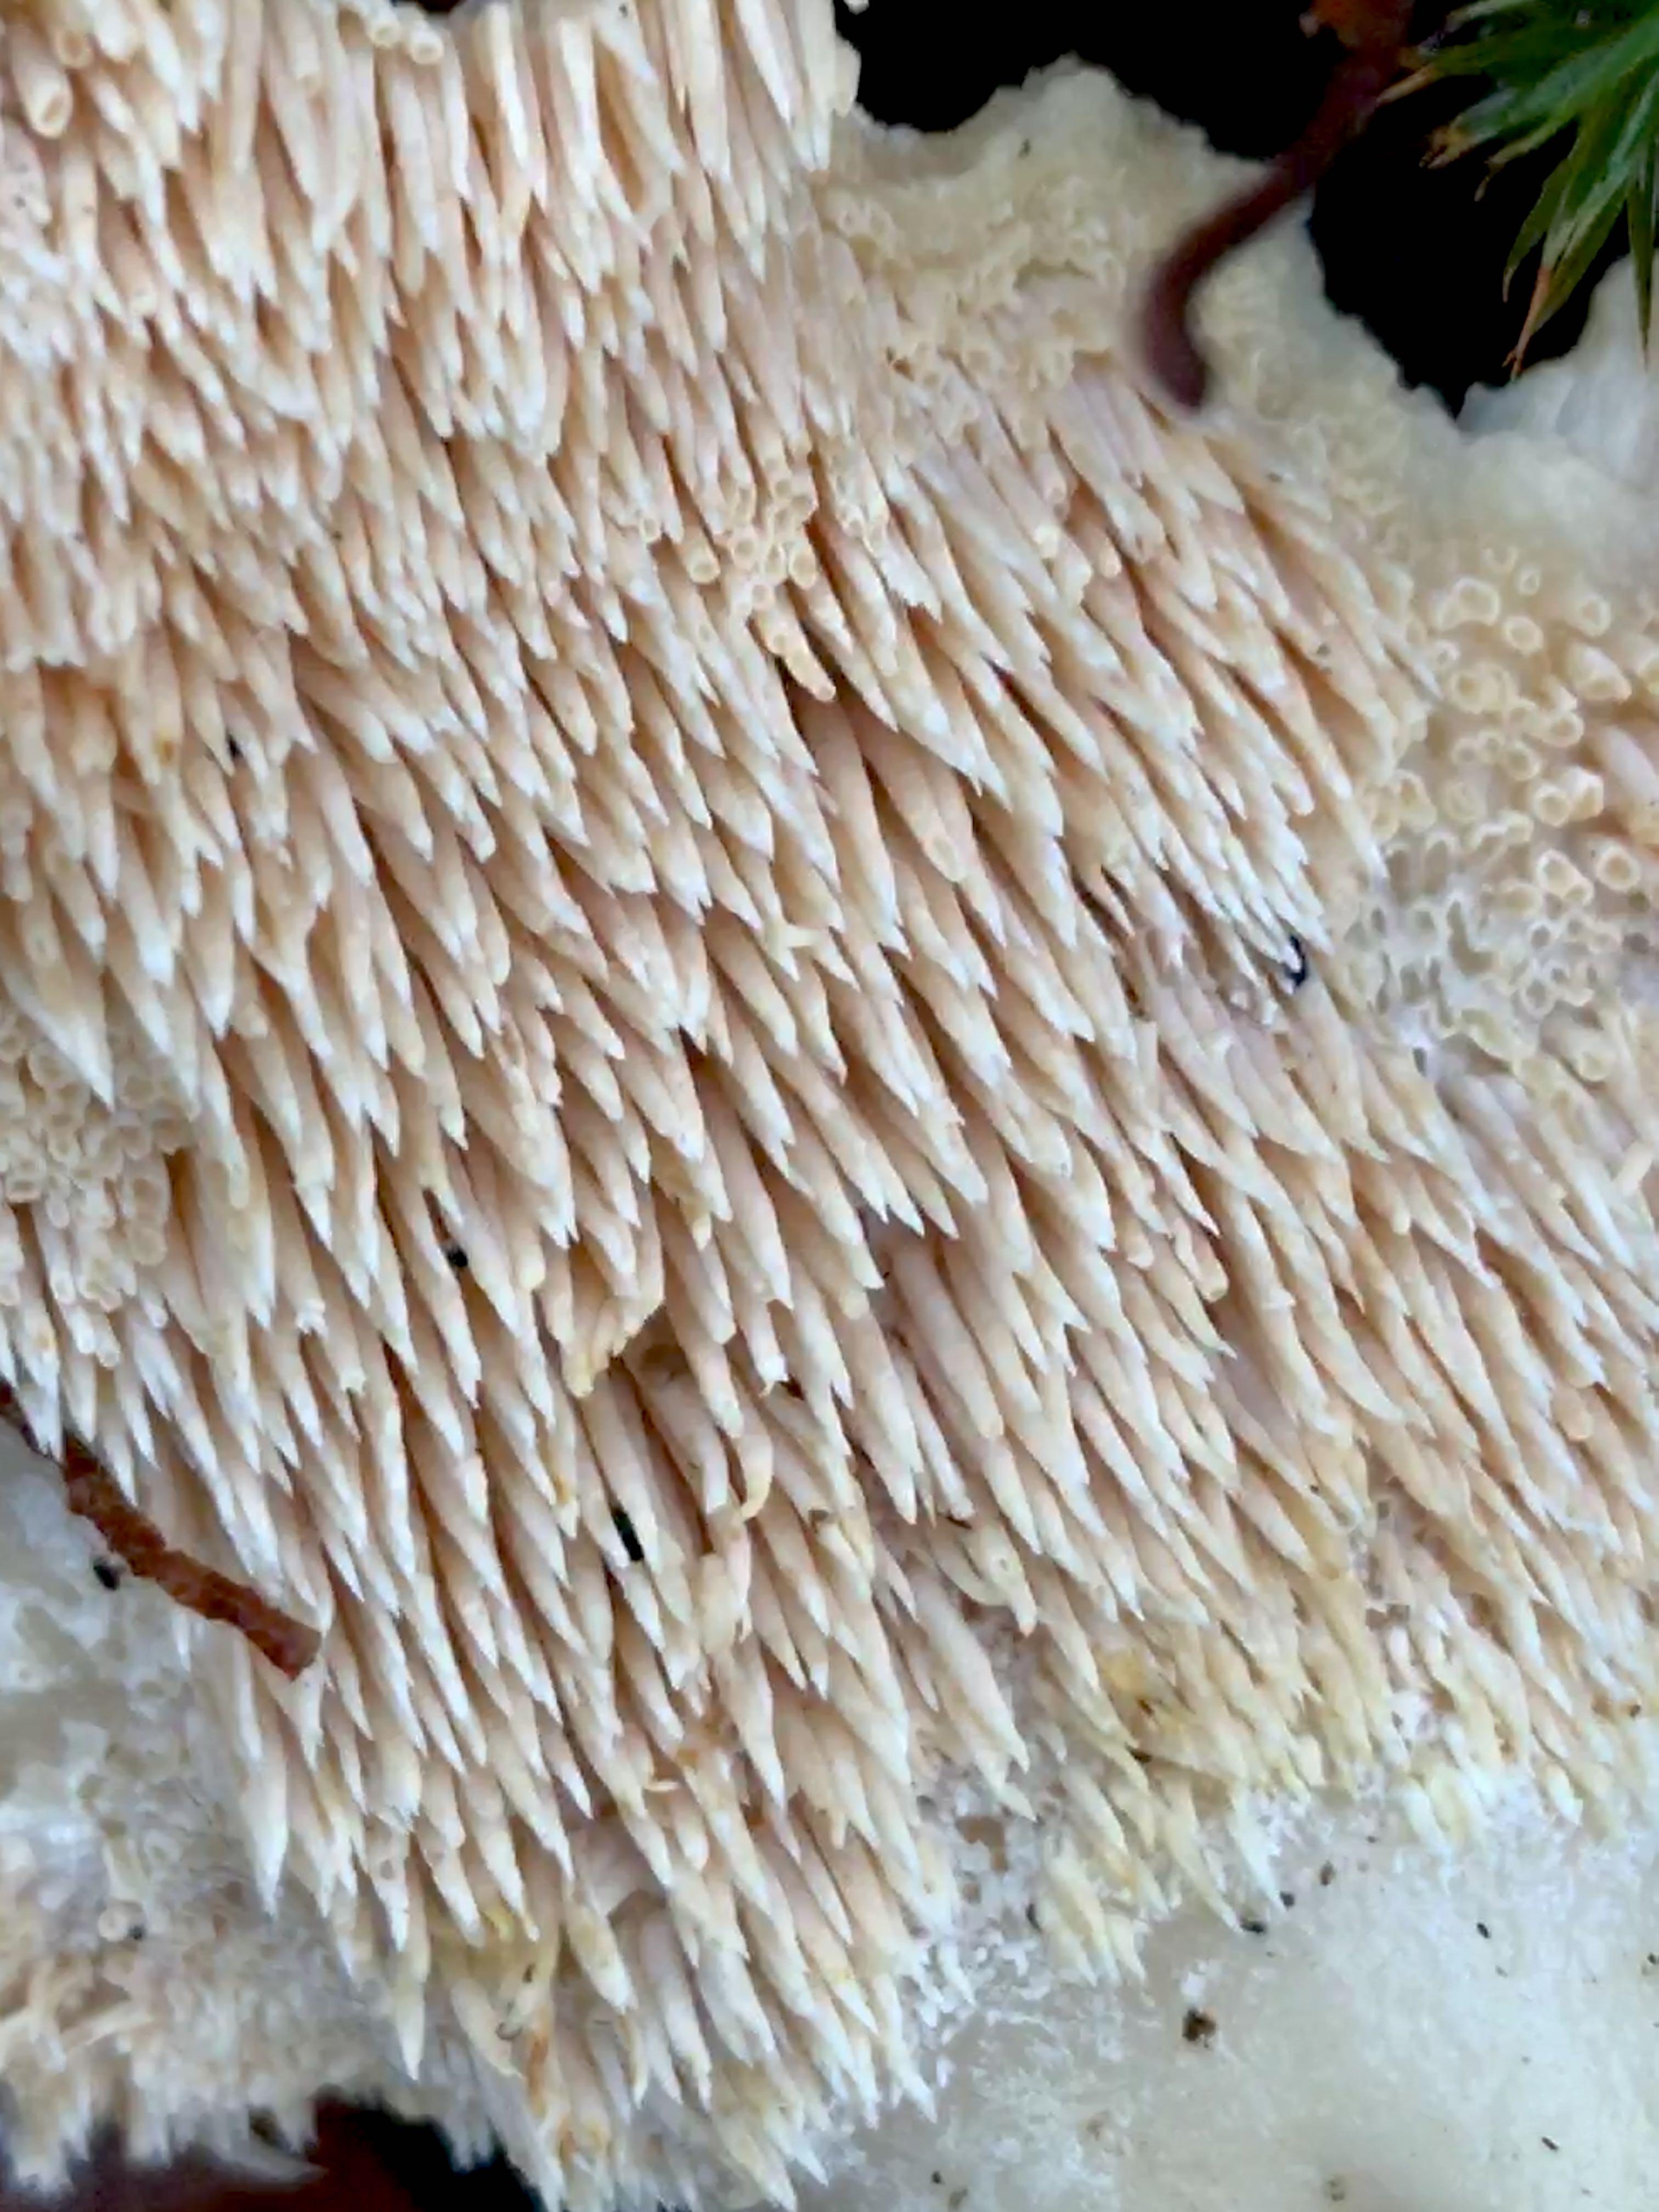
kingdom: Fungi
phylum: Basidiomycota
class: Agaricomycetes
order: Cantharellales
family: Hydnaceae
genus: Hydnum
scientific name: Hydnum repandum
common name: almindelig pigsvamp
